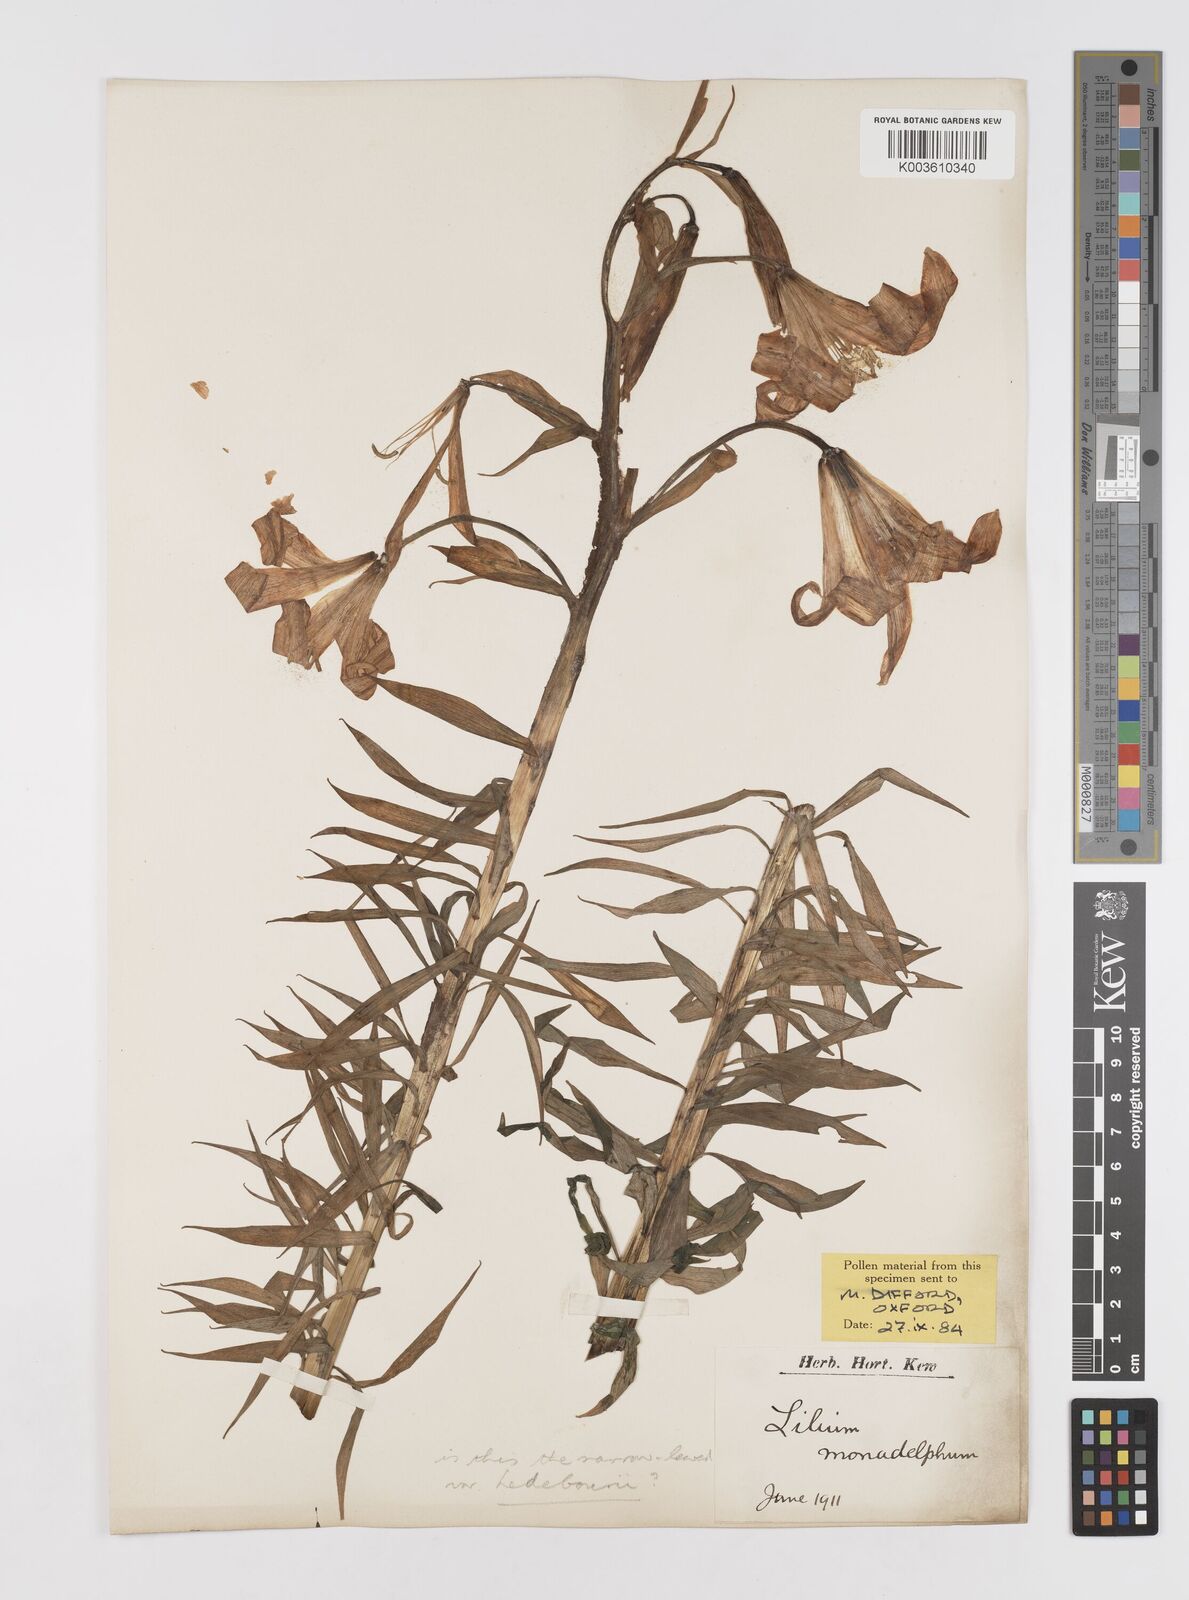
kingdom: Plantae
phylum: Tracheophyta
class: Liliopsida
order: Liliales
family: Liliaceae
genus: Lilium
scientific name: Lilium monadelphum
